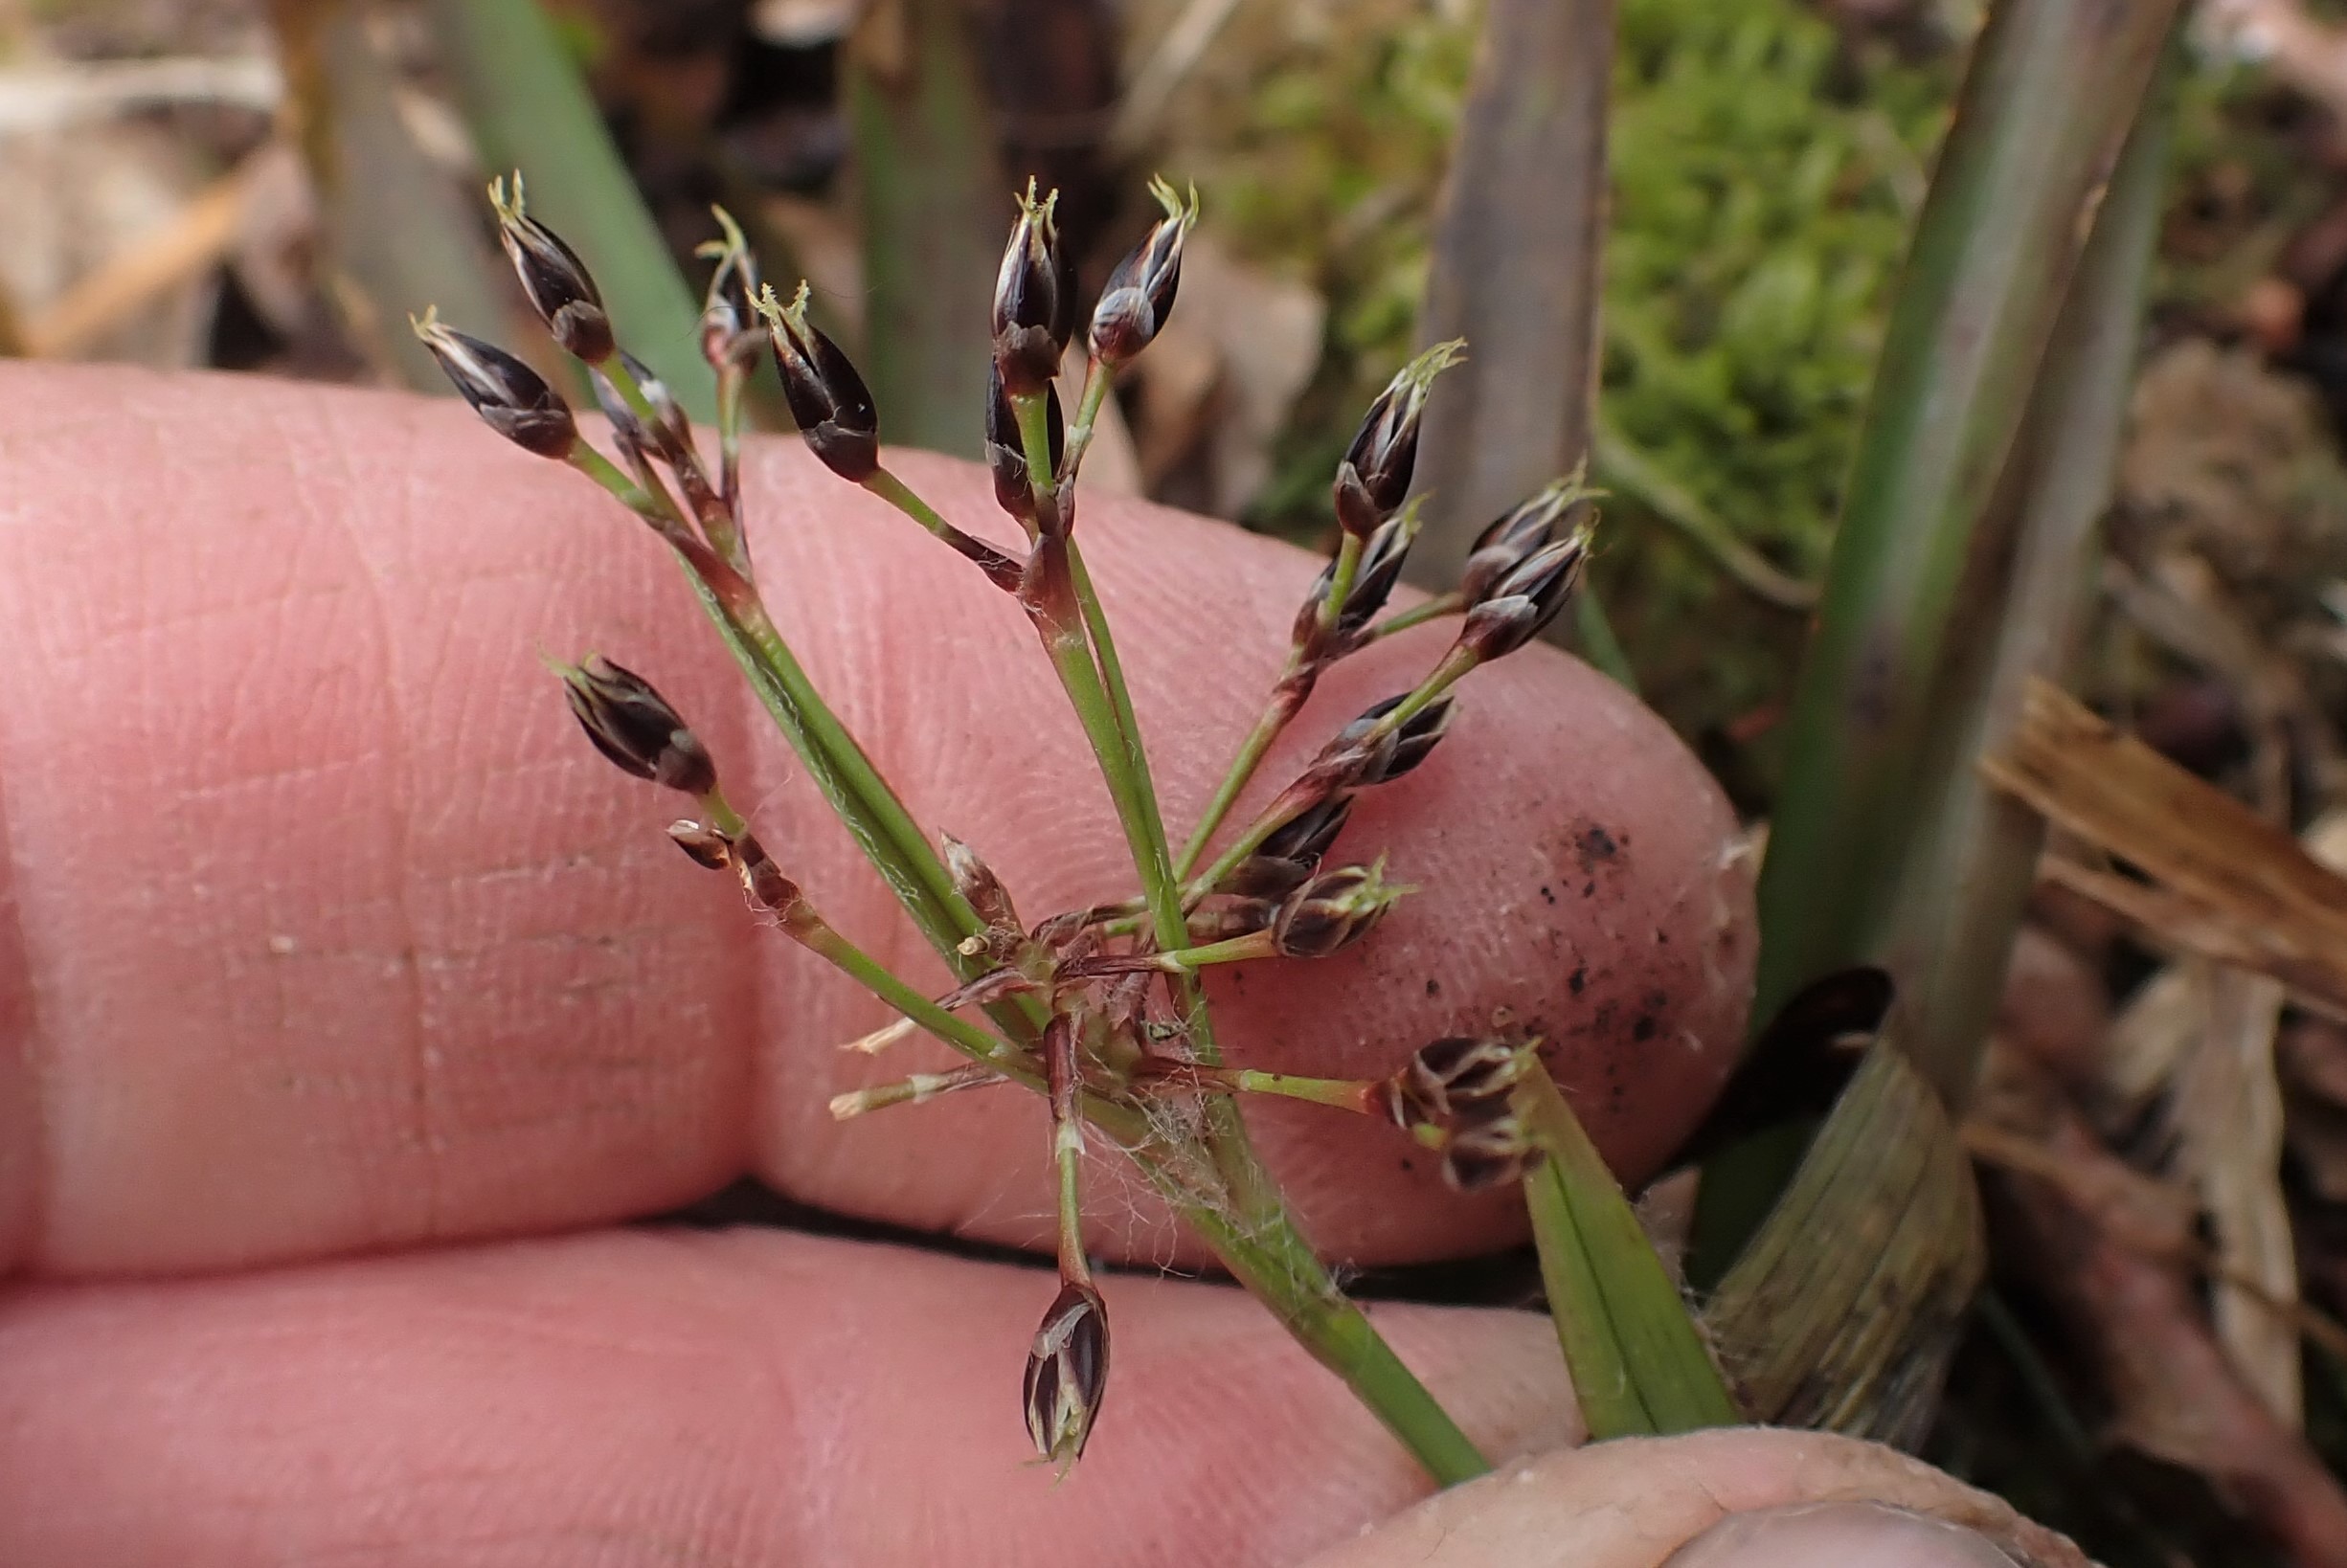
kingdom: Plantae
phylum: Tracheophyta
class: Liliopsida
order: Poales
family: Juncaceae
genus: Luzula
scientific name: Luzula pilosa
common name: Håret frytle
